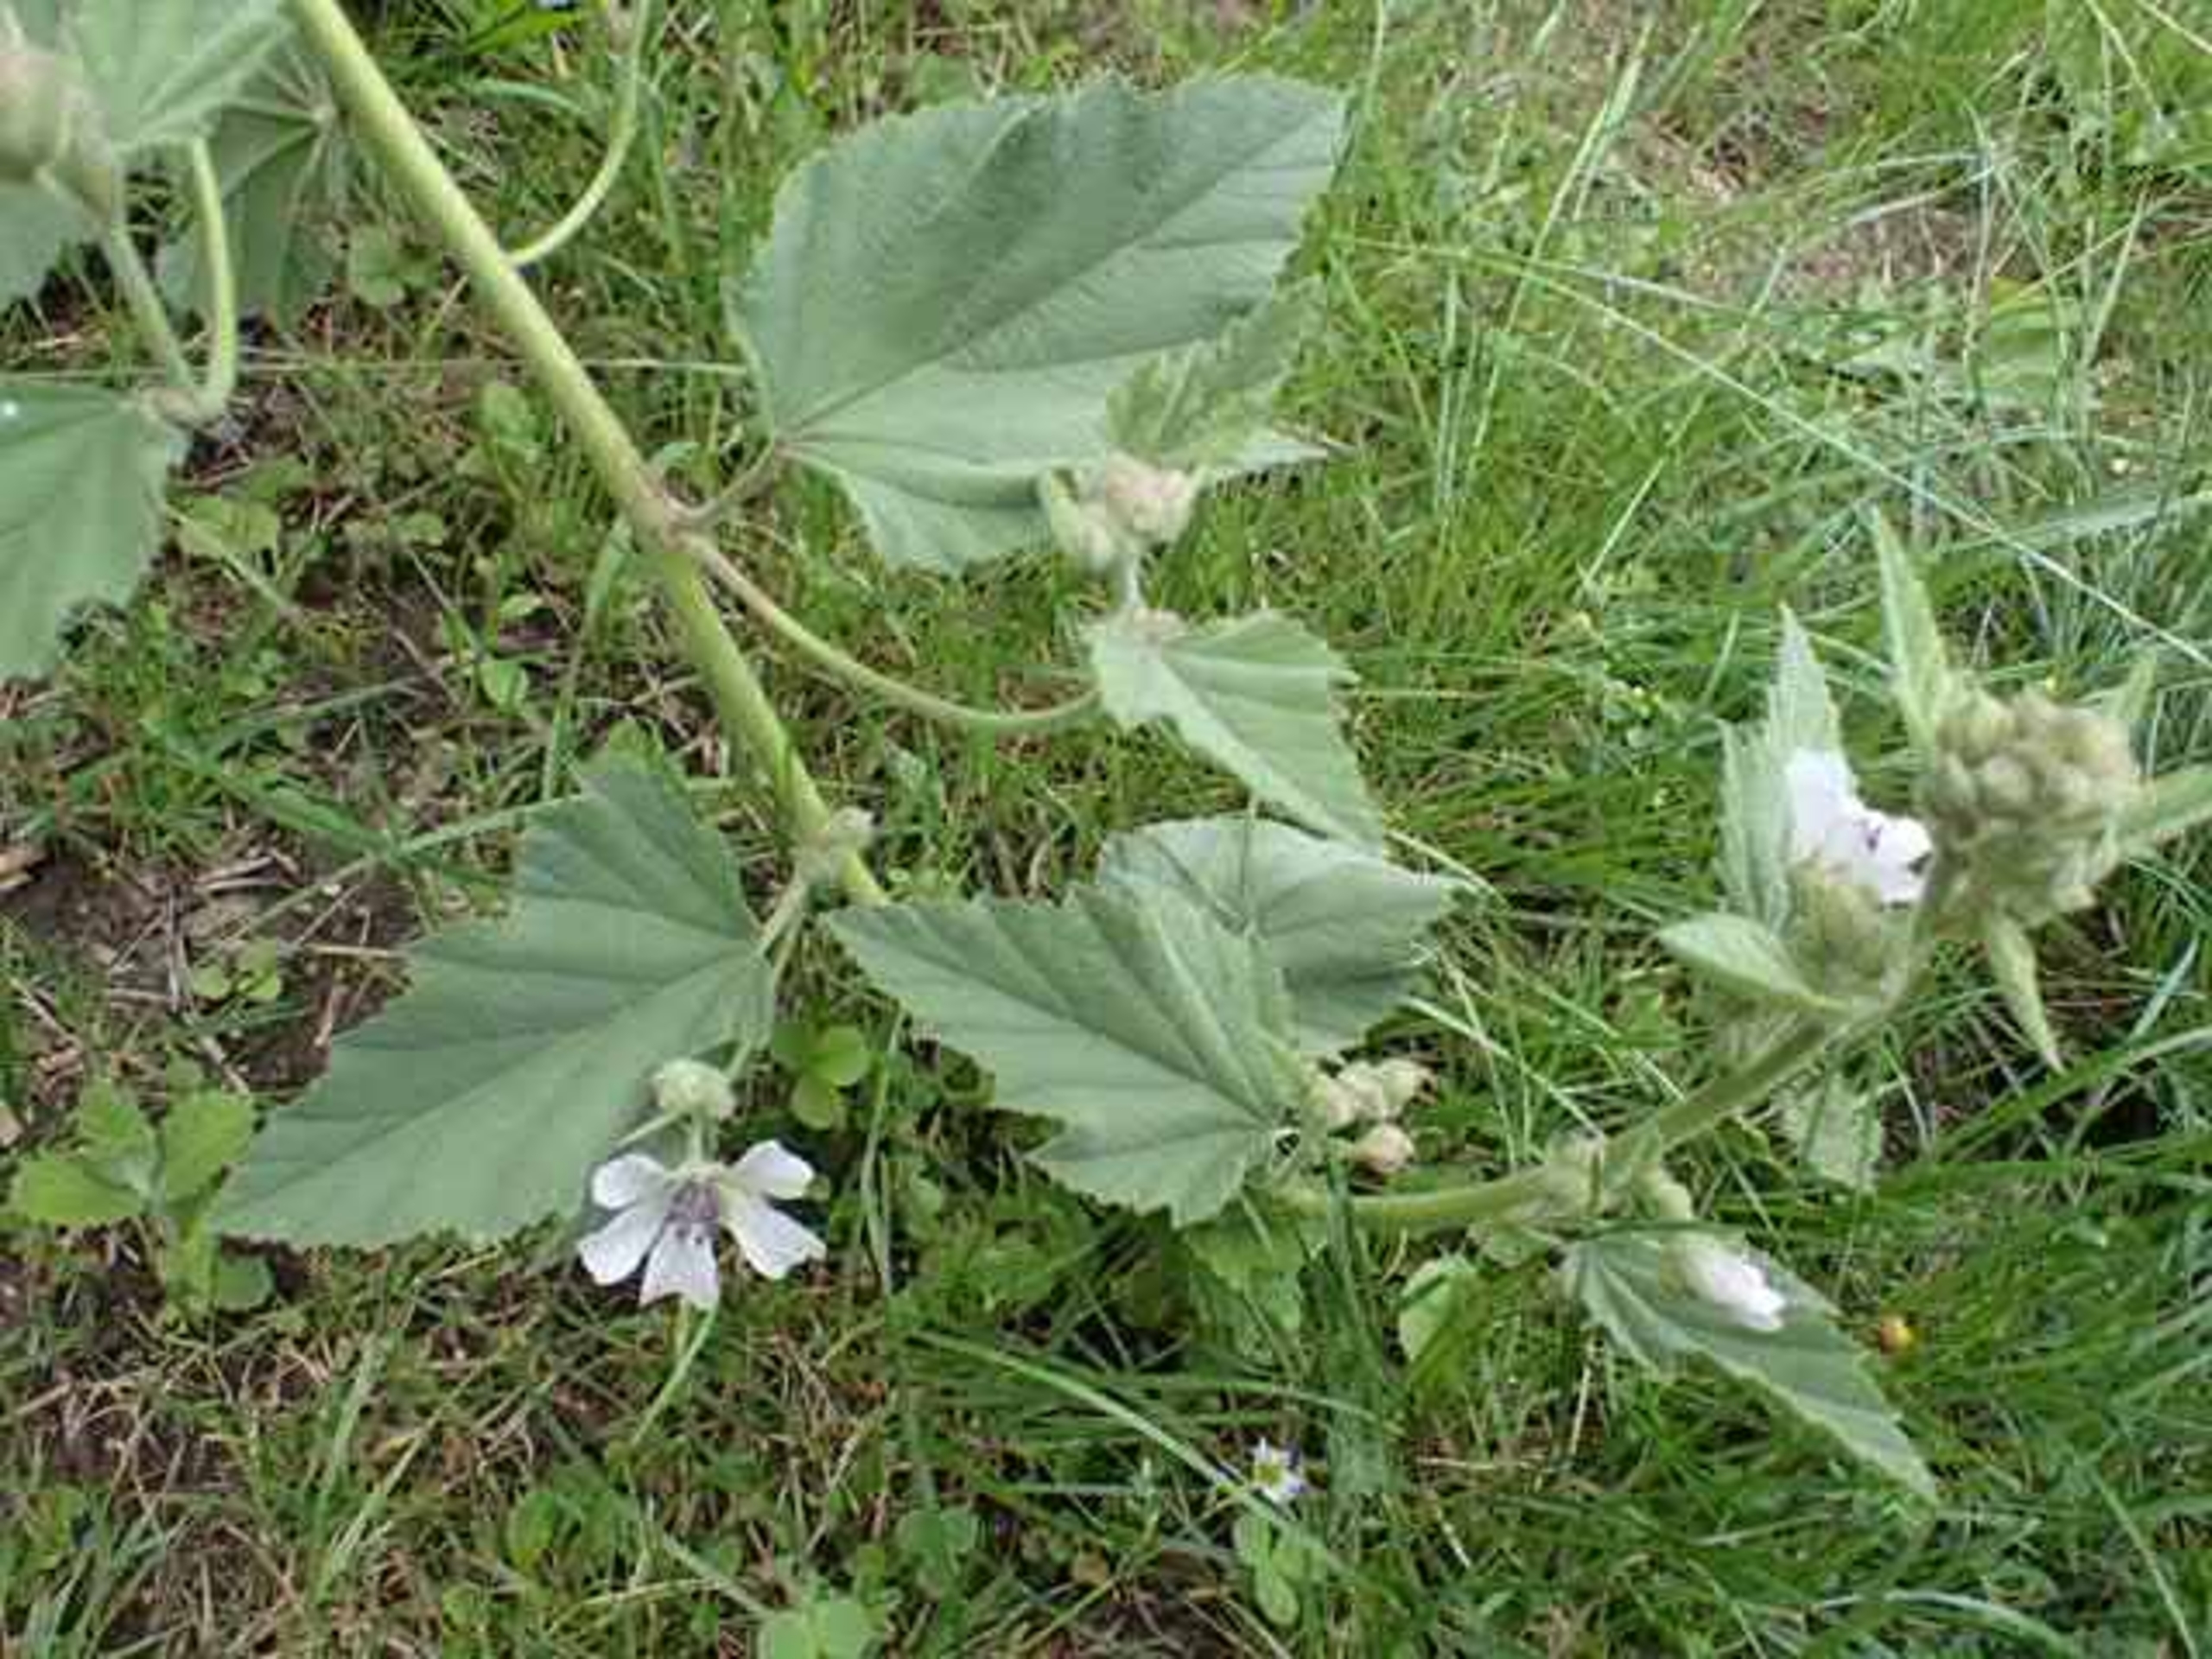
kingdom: Plantae
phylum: Tracheophyta
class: Magnoliopsida
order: Malvales
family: Malvaceae
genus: Althaea
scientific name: Althaea officinalis
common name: Lægestokrose
